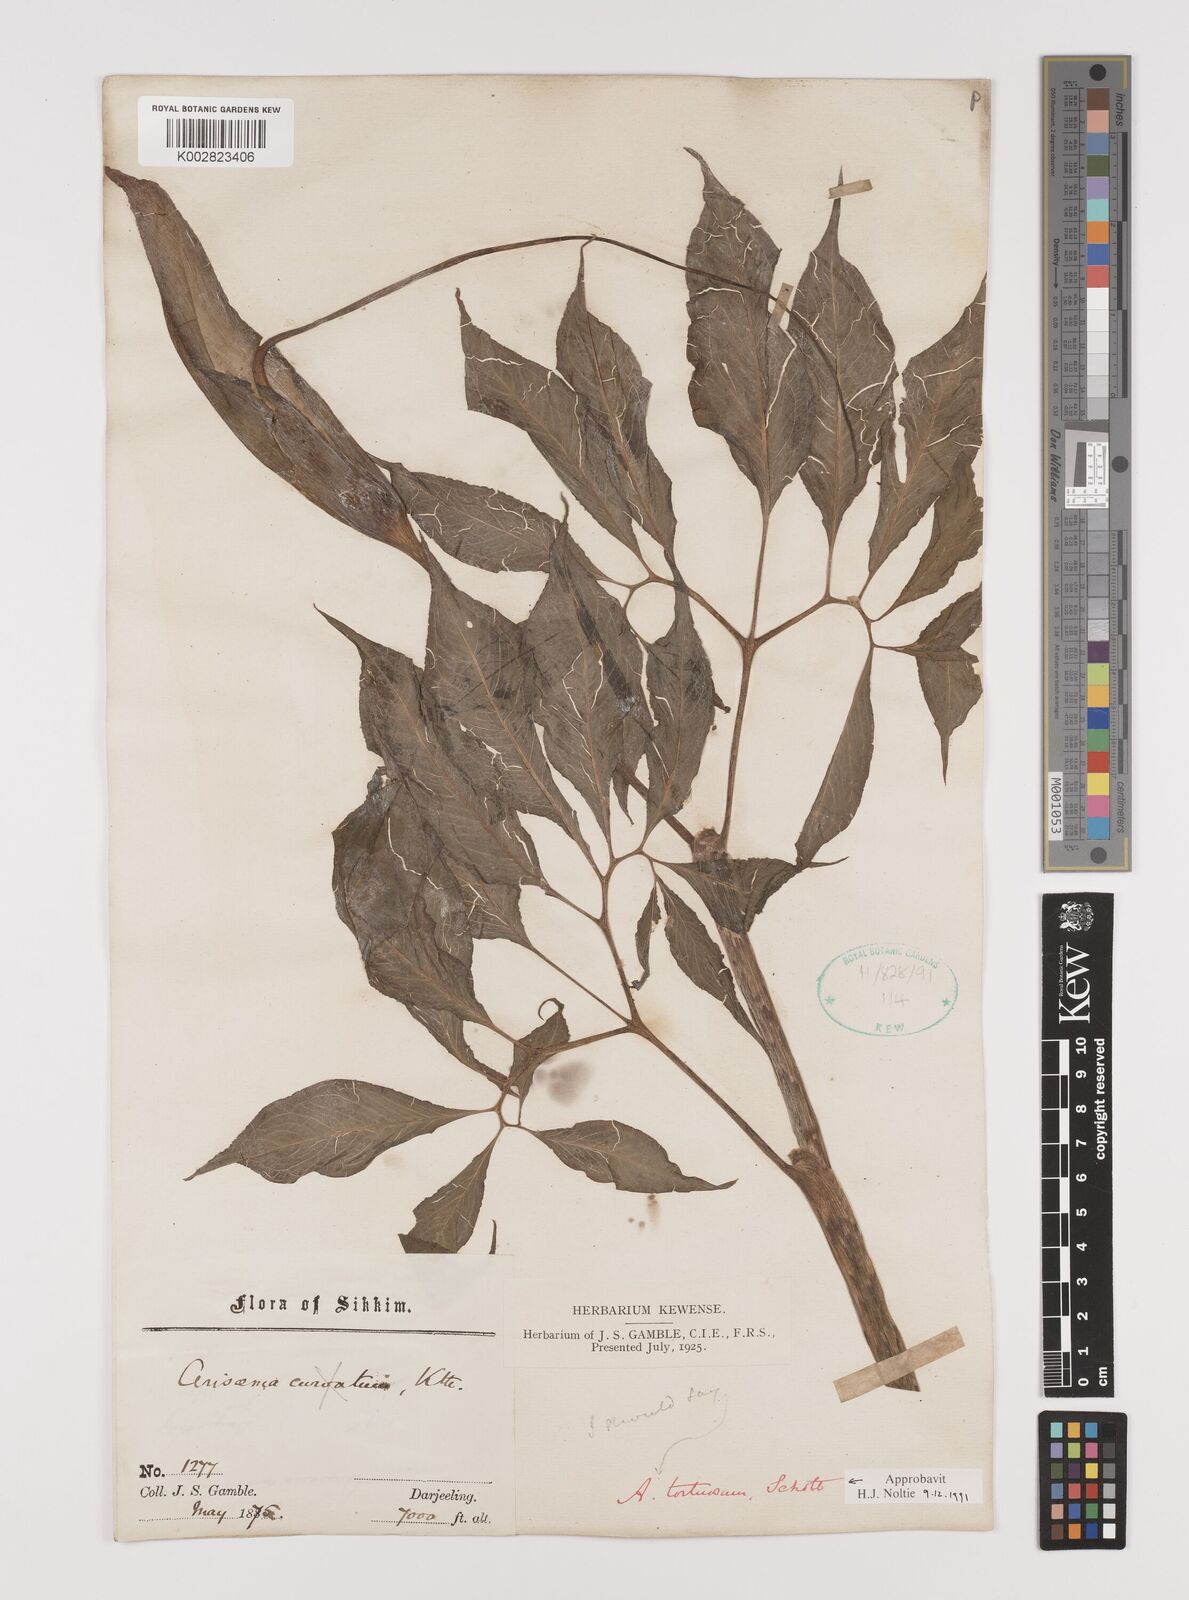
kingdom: Plantae
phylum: Tracheophyta
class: Liliopsida
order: Alismatales
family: Araceae
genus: Arisaema
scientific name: Arisaema tortuosum
